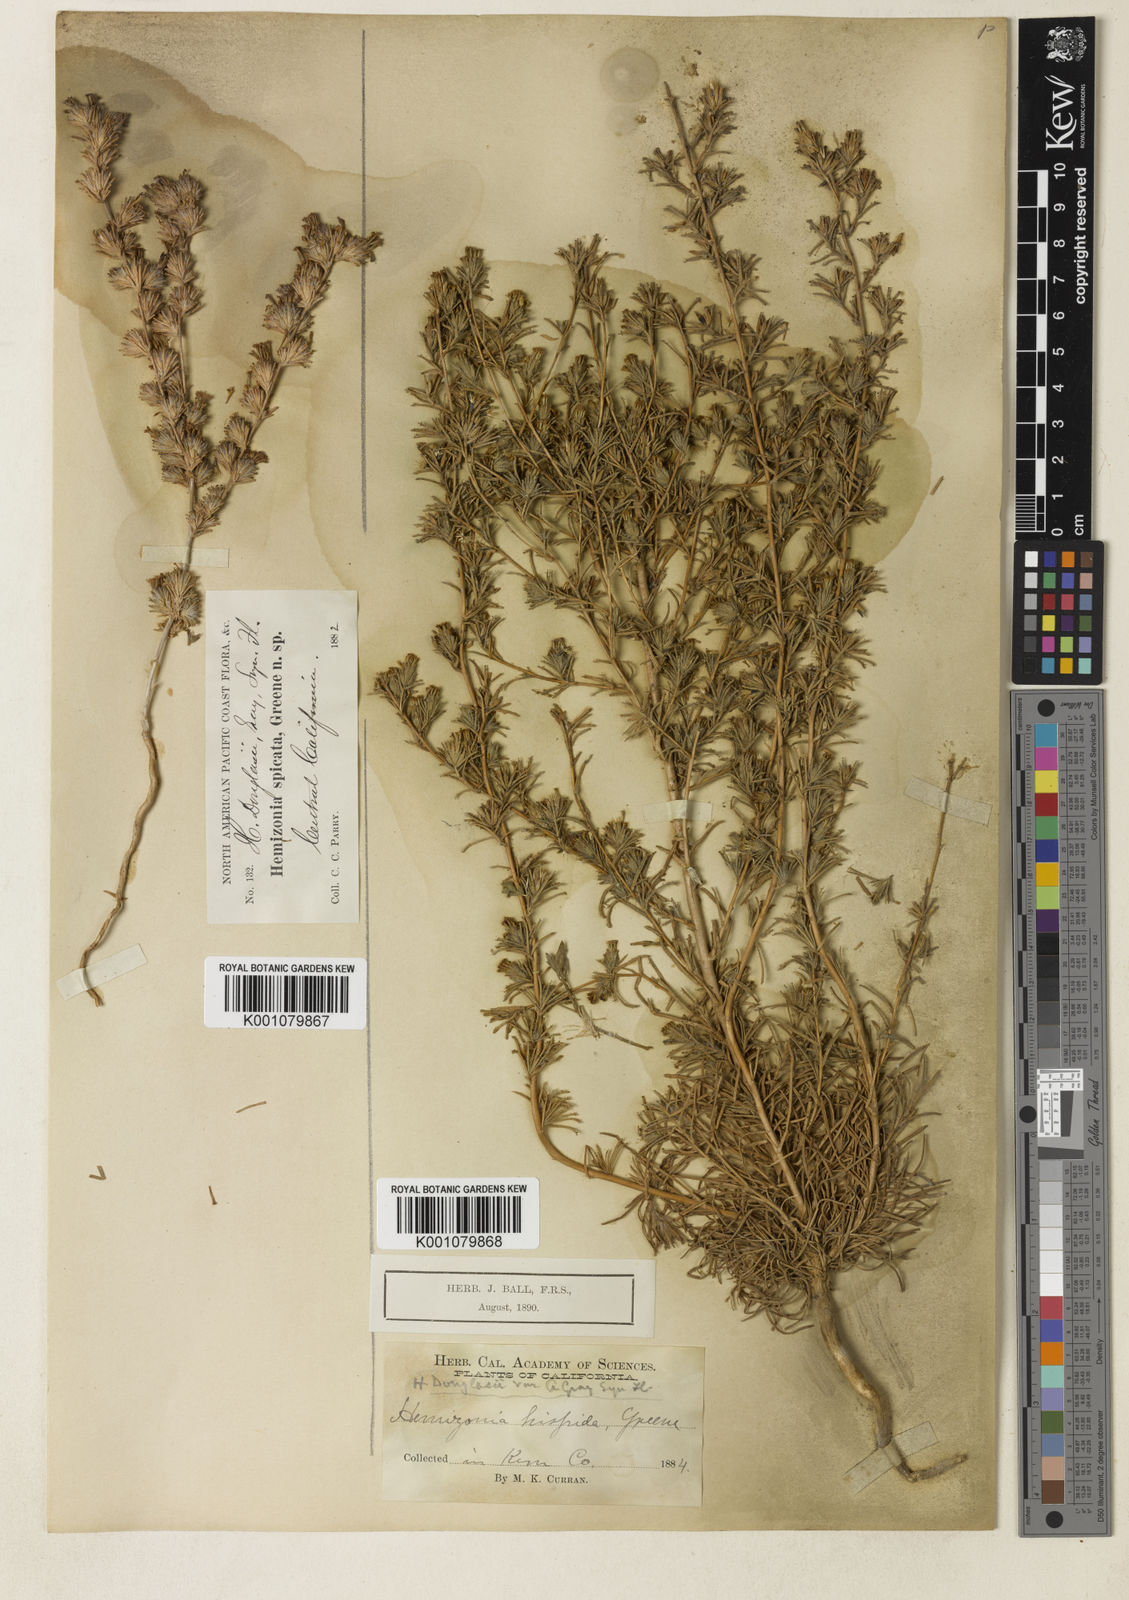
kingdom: Plantae
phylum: Tracheophyta
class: Magnoliopsida
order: Asterales
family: Asteraceae
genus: Calycadenia
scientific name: Calycadenia villosa
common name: Dwarf calycadenia
